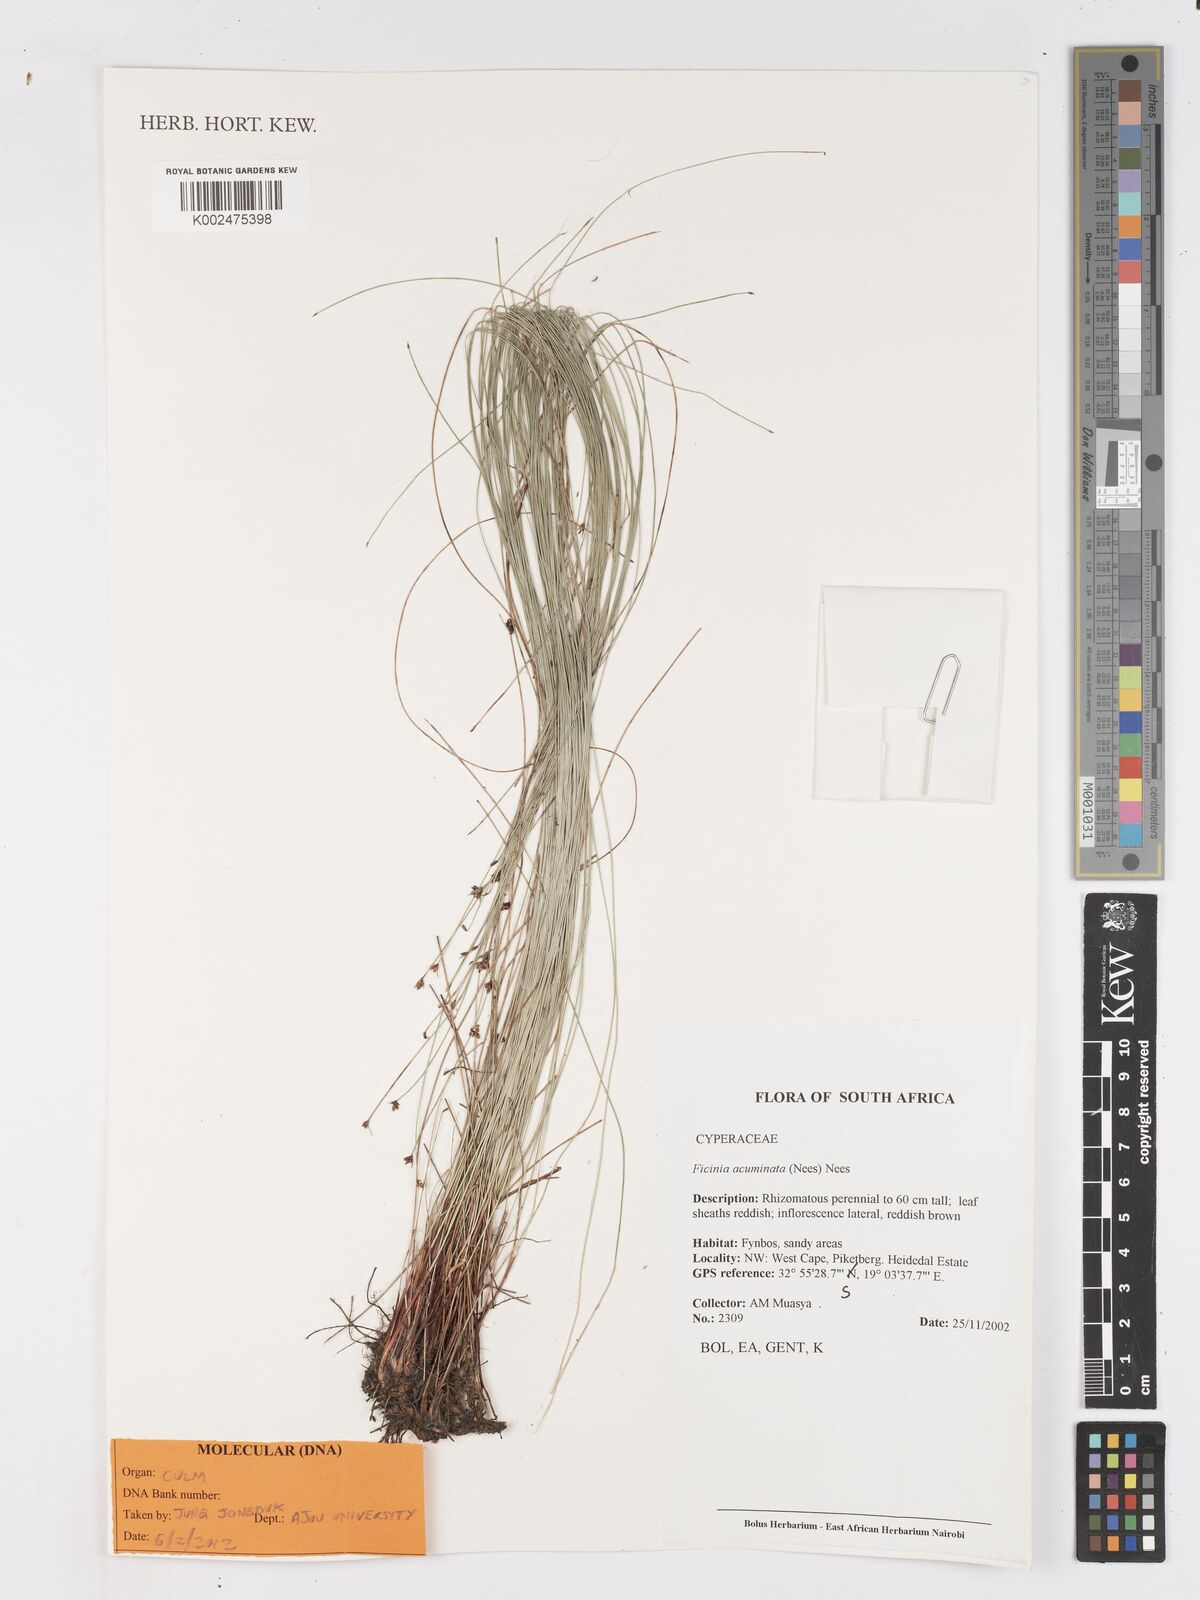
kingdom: Plantae
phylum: Tracheophyta
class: Liliopsida
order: Poales
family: Cyperaceae
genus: Ficinia
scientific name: Ficinia acuminata
